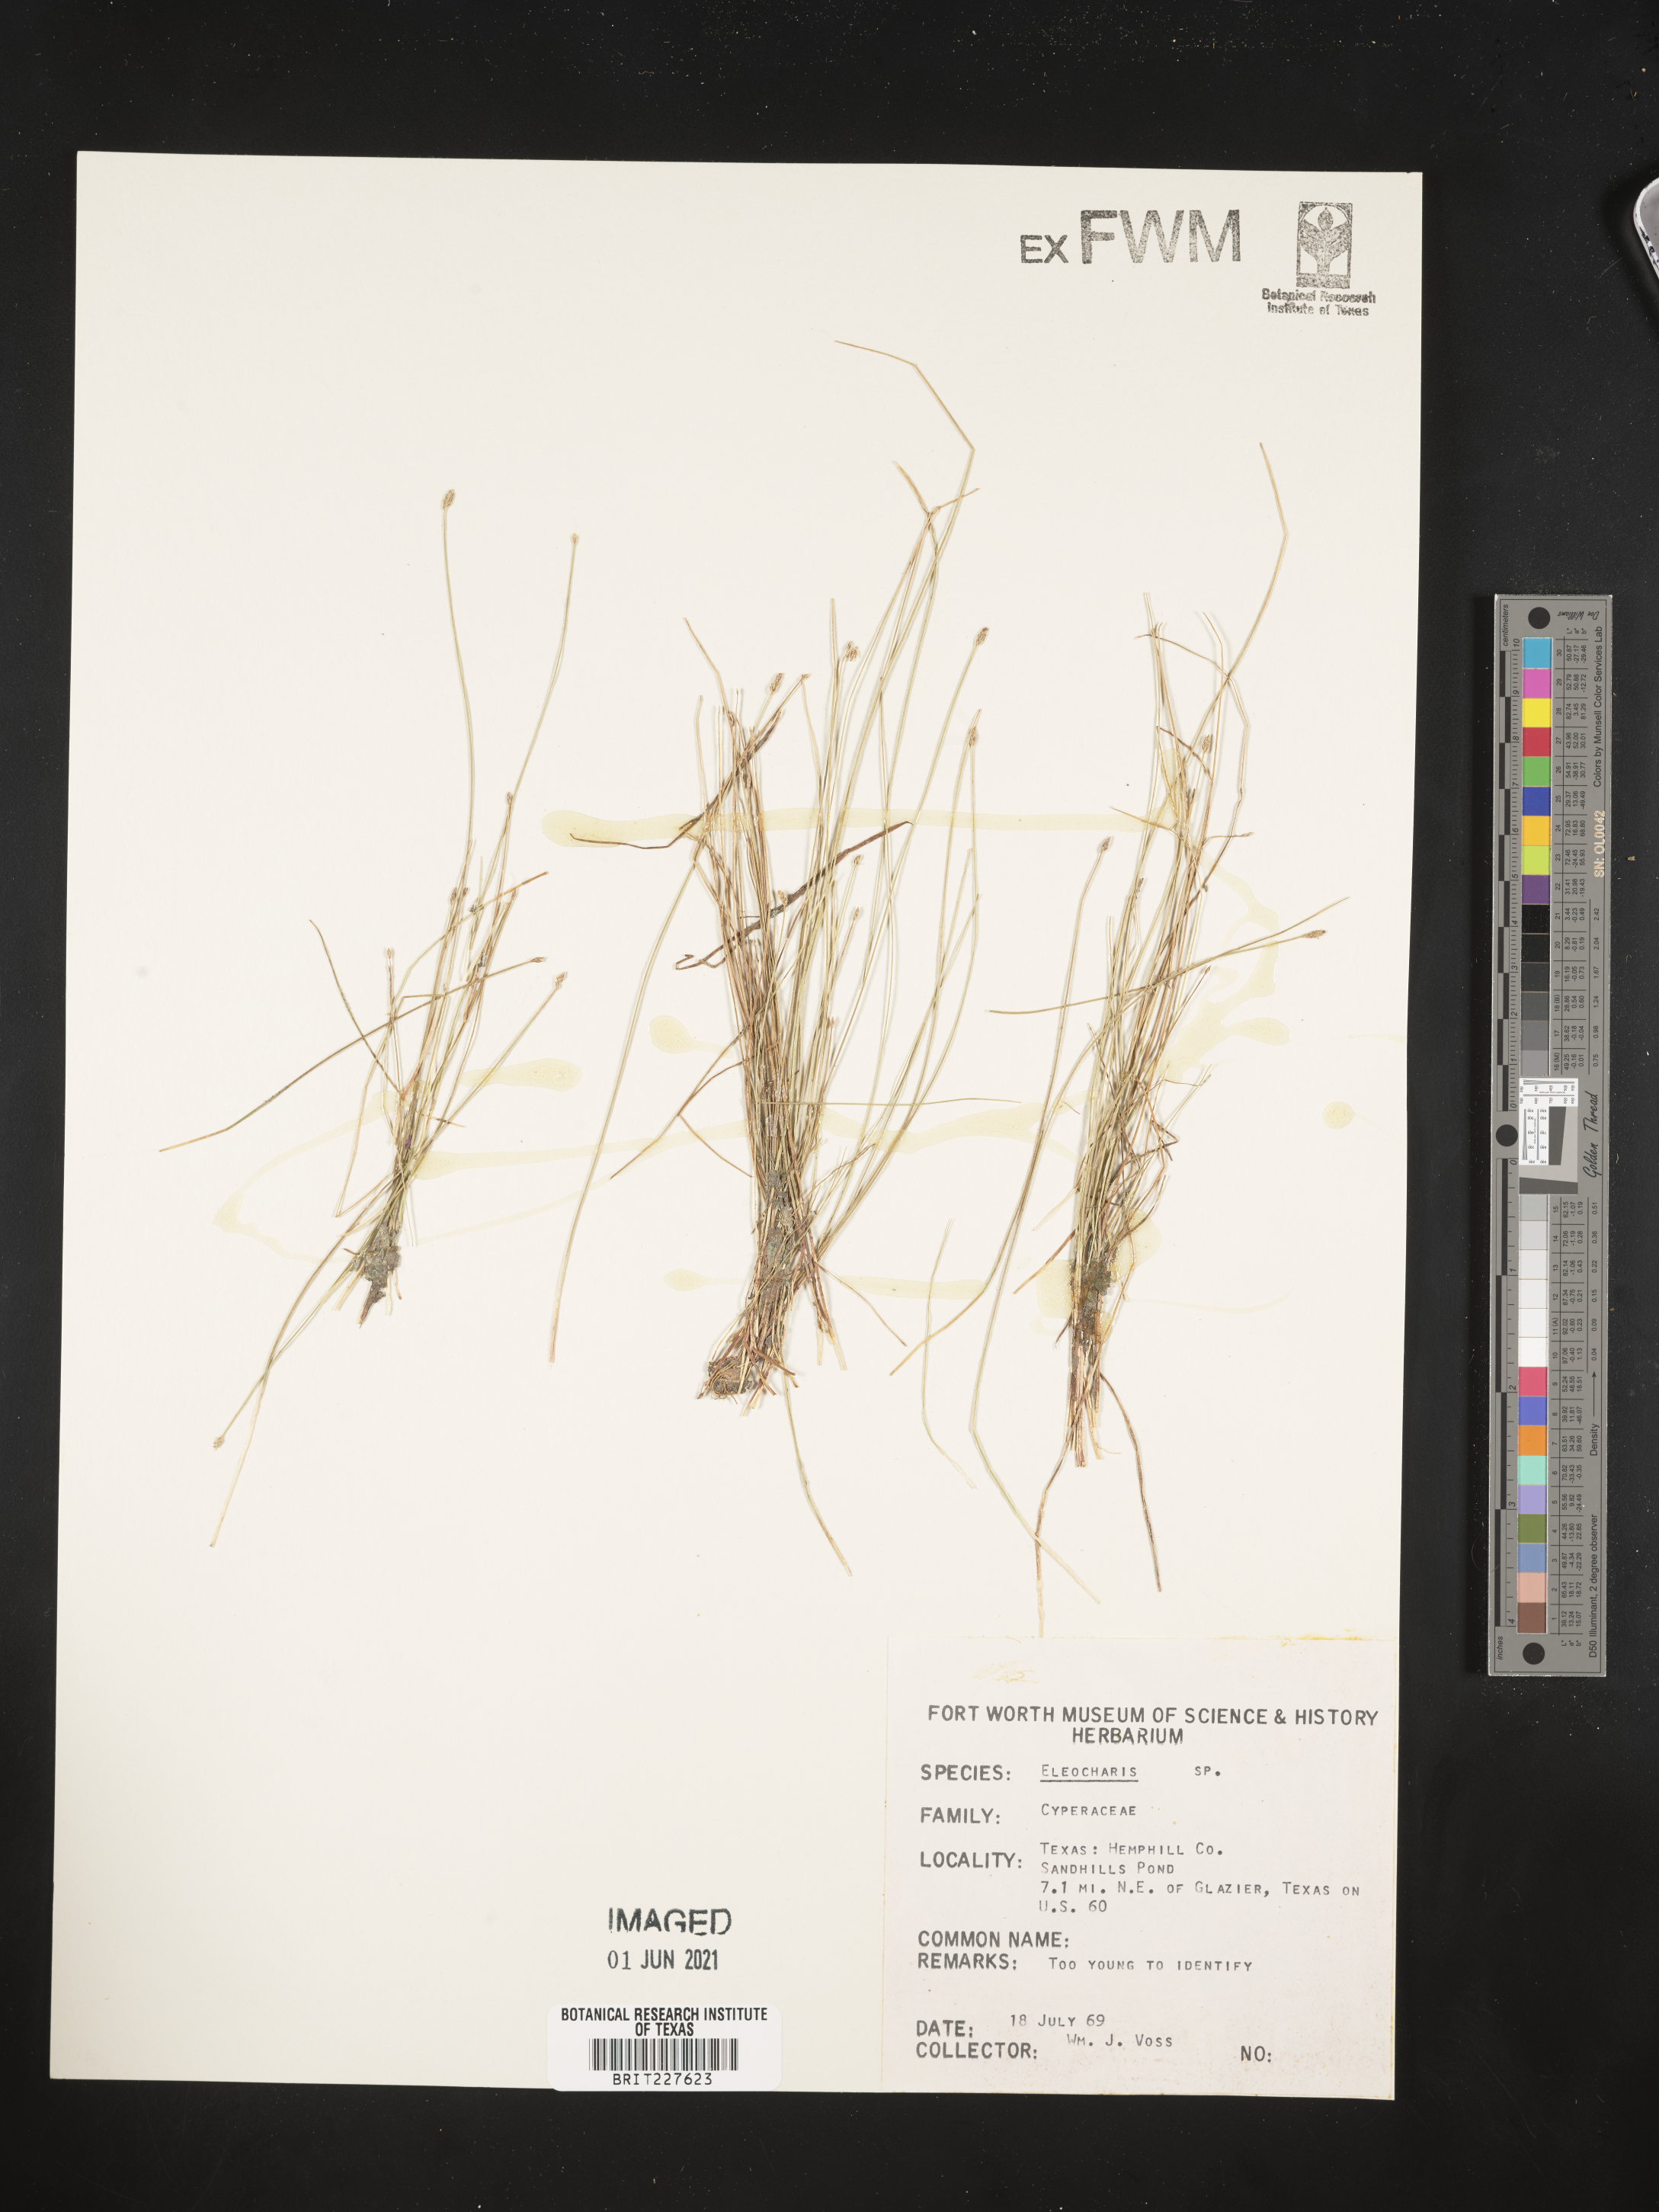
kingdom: Plantae
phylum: Tracheophyta
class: Liliopsida
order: Poales
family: Cyperaceae
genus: Eleocharis
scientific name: Eleocharis
